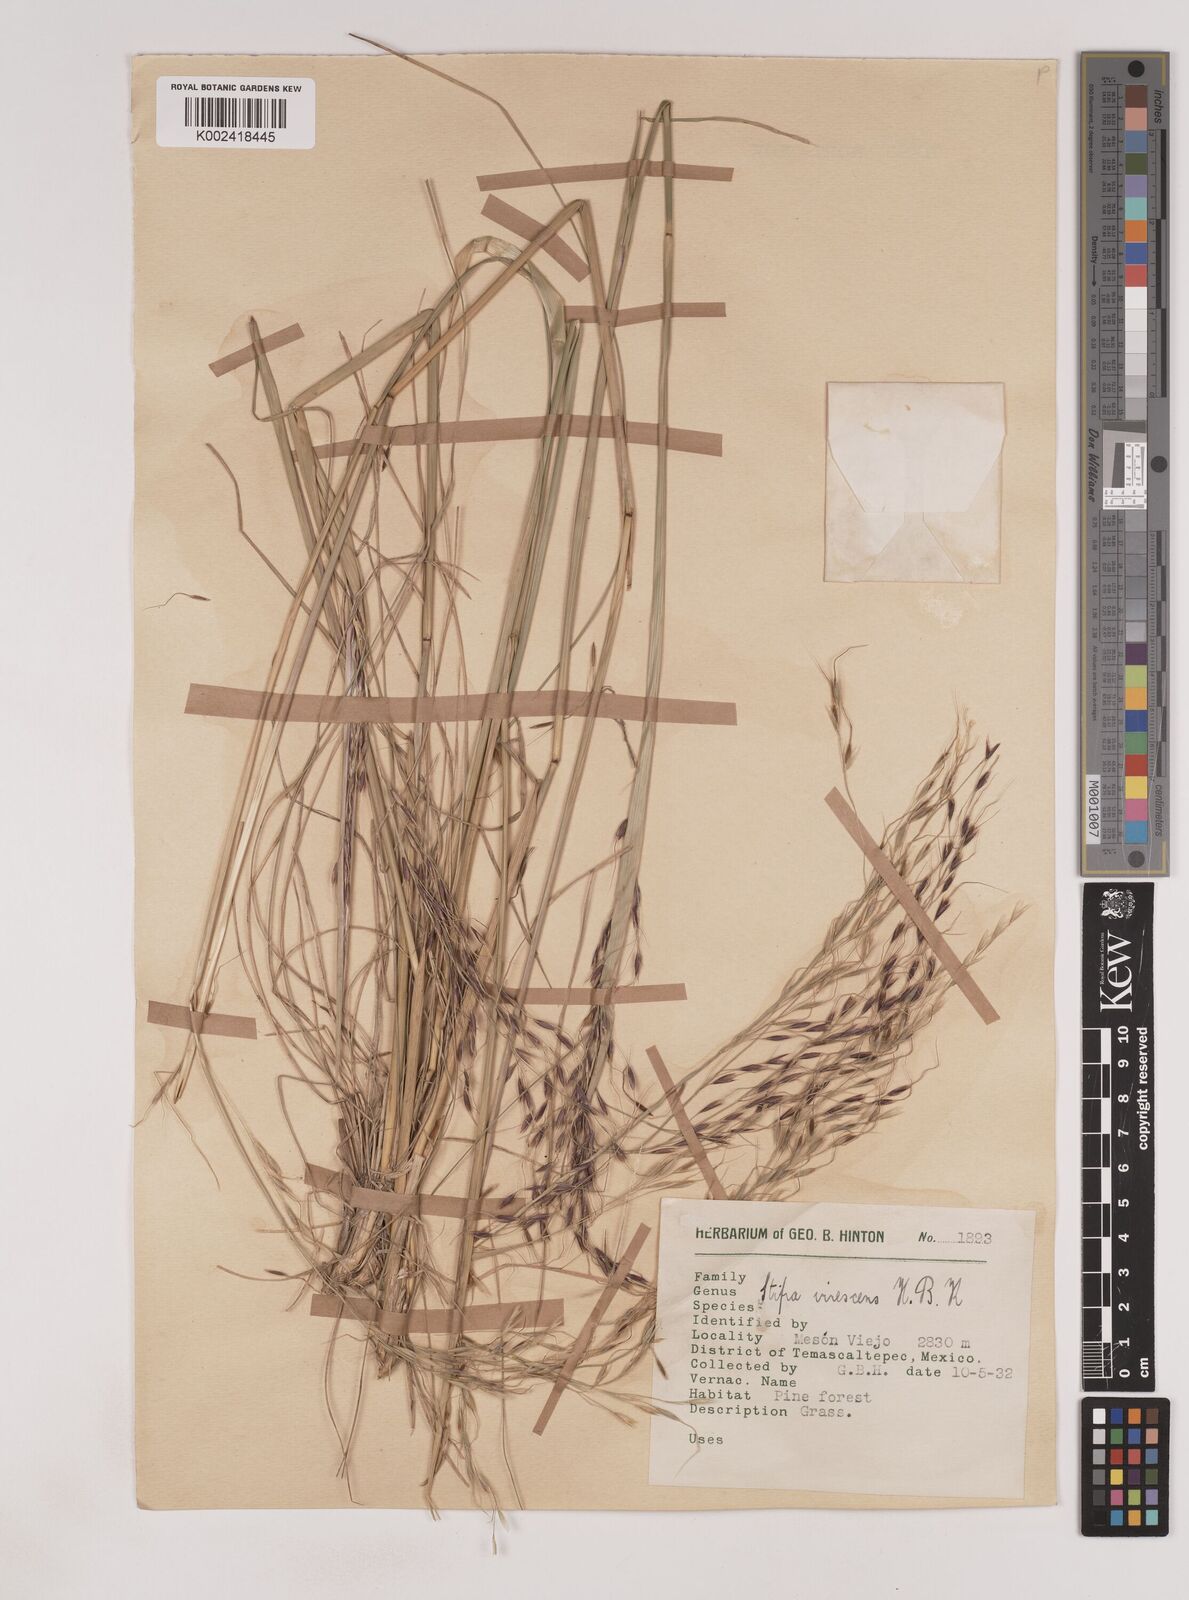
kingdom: Plantae
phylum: Tracheophyta
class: Liliopsida
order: Poales
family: Poaceae
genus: Piptochaetium
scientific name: Piptochaetium virescens
